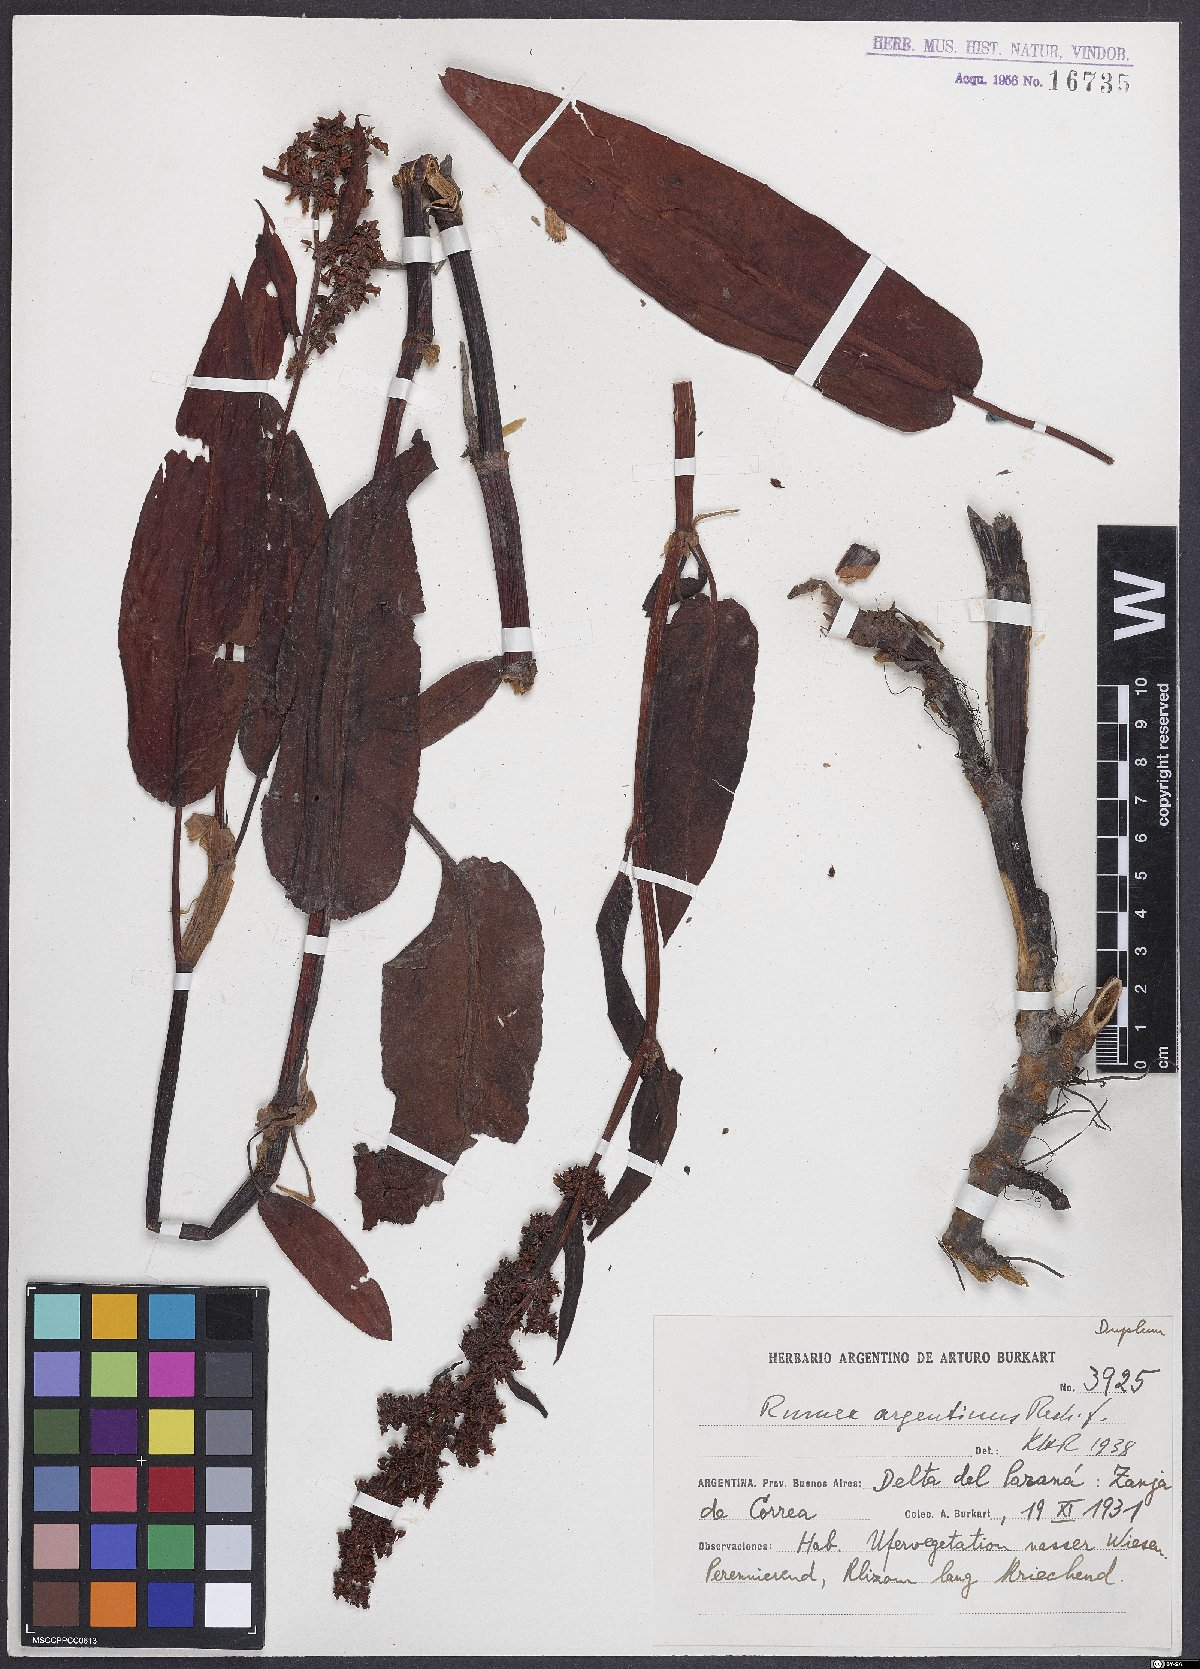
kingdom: Plantae
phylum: Tracheophyta
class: Magnoliopsida
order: Caryophyllales
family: Polygonaceae
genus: Rumex
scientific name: Rumex argentinus
